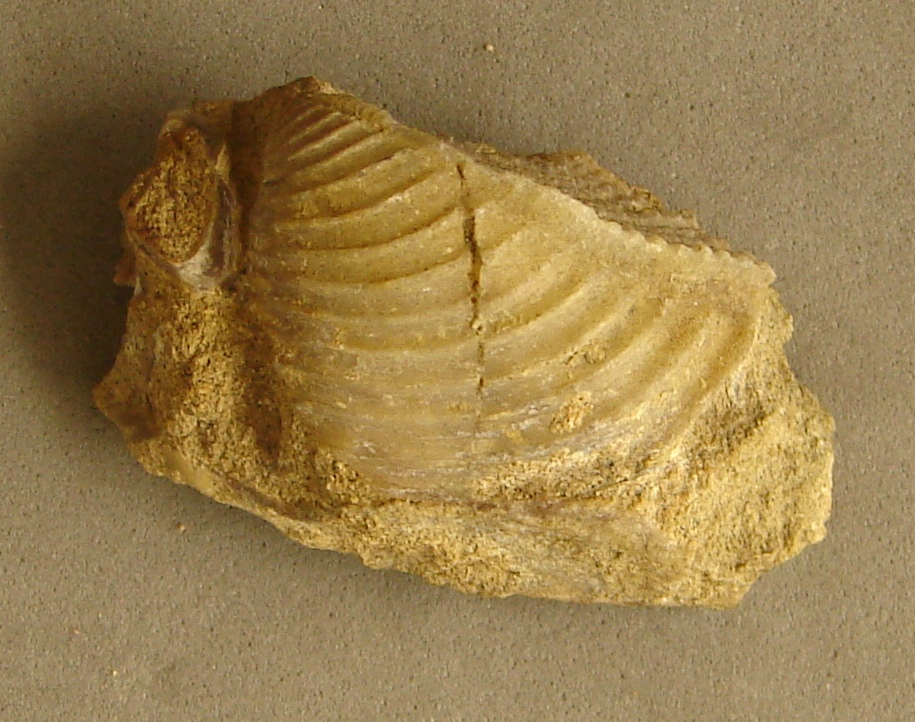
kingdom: Animalia
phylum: Mollusca
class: Bivalvia
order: Trigoniida
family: Trigoniidae
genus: Trigonia
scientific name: Trigonia reticulata
